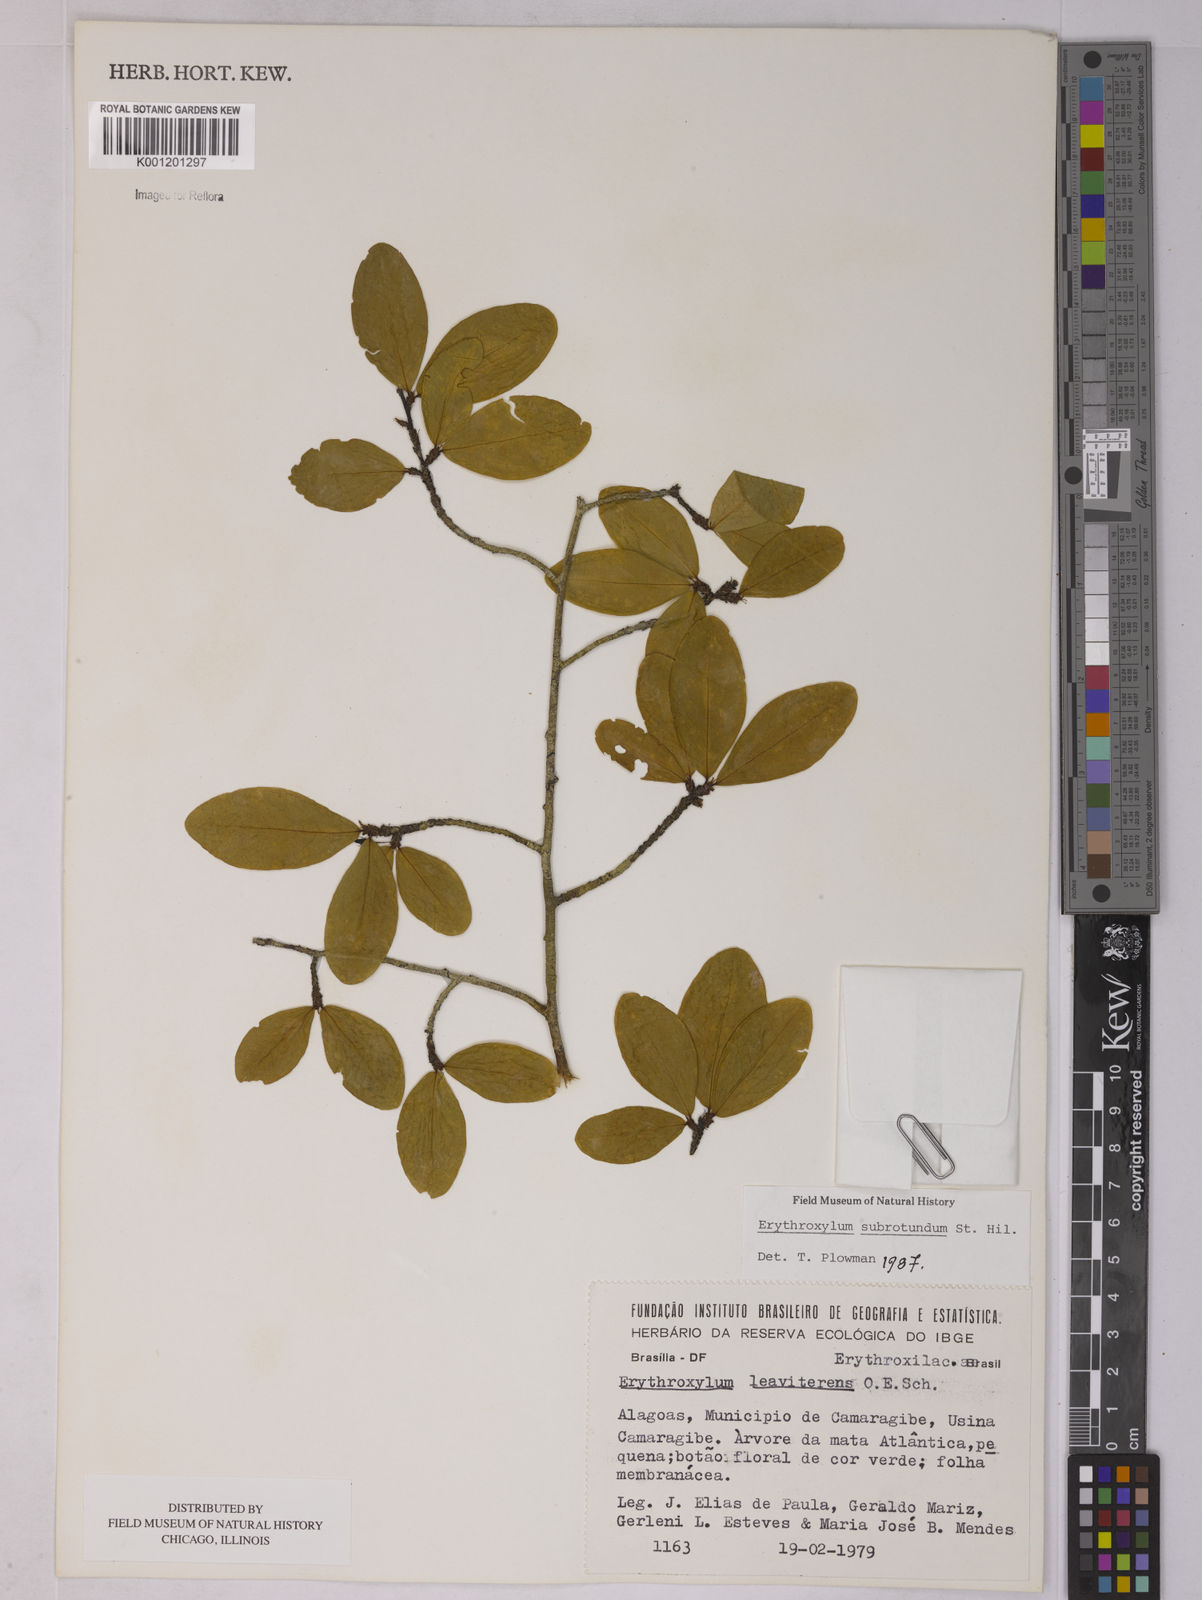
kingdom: Plantae
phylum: Tracheophyta
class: Magnoliopsida
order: Malpighiales
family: Erythroxylaceae
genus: Erythroxylum
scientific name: Erythroxylum subrotundum
